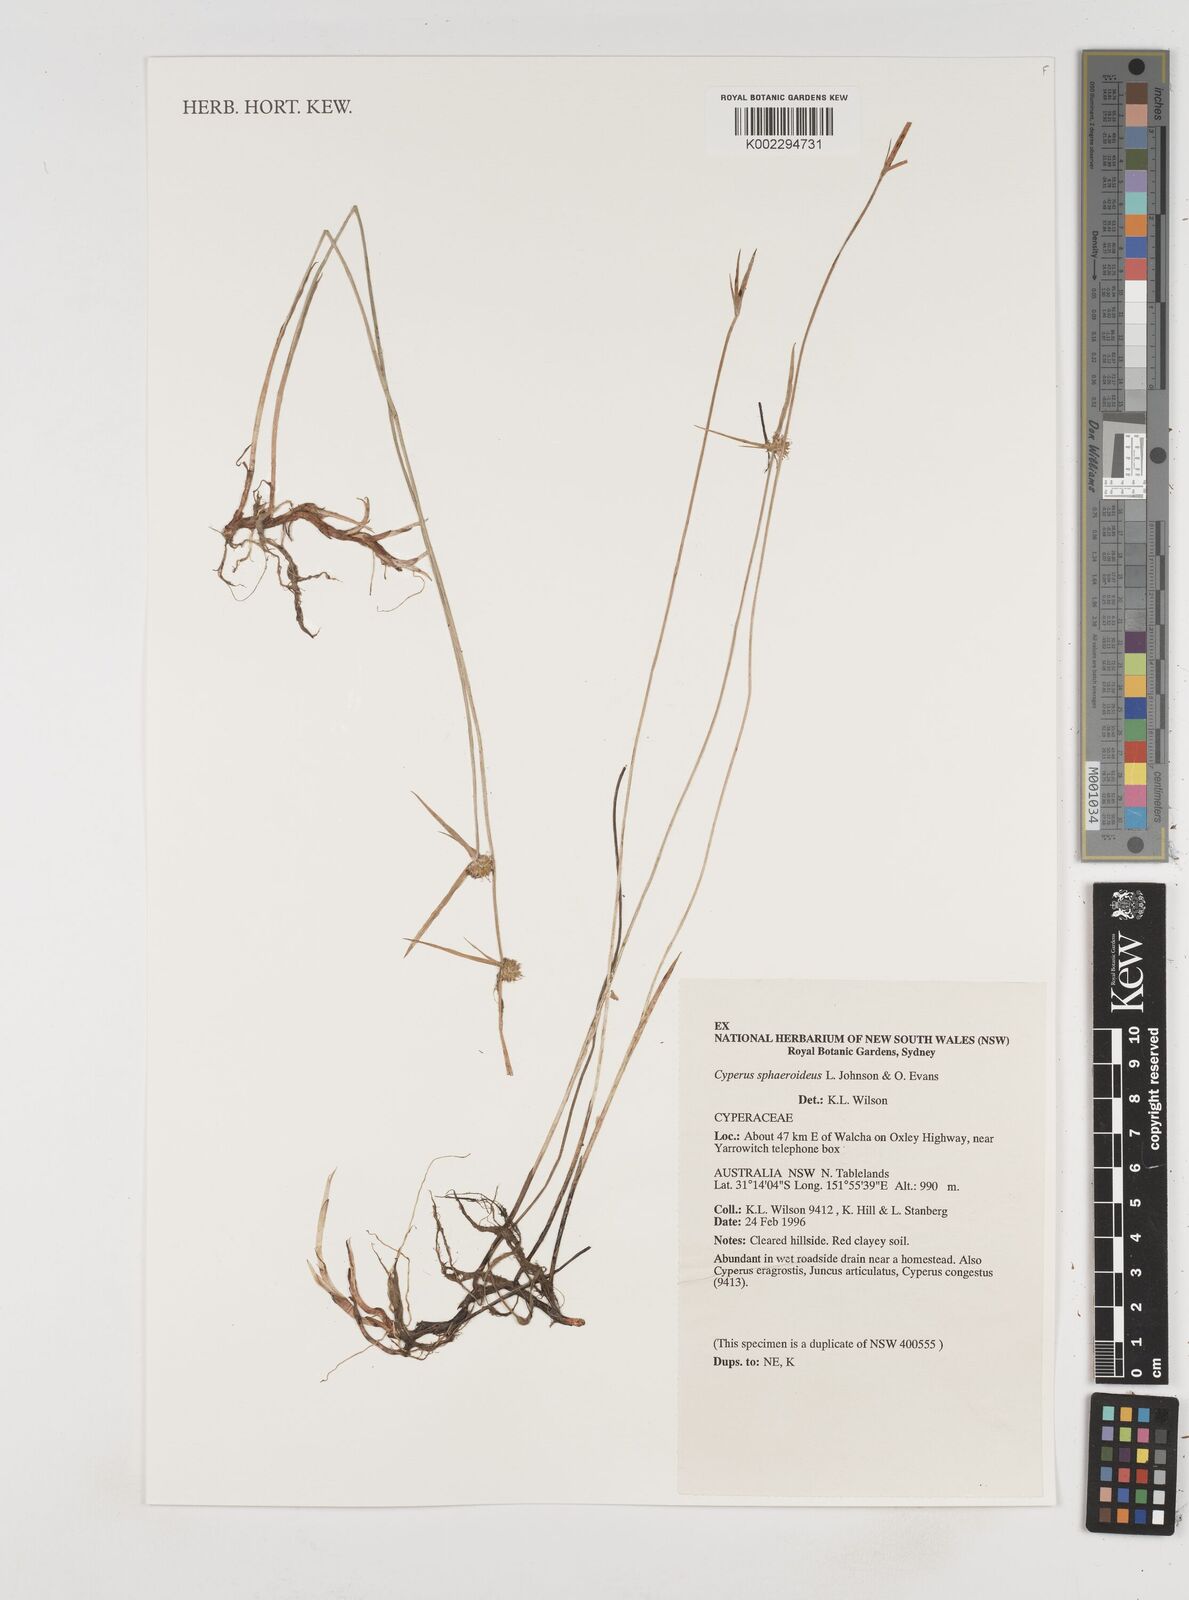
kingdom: Plantae
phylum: Tracheophyta
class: Liliopsida
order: Poales
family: Cyperaceae
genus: Cyperus
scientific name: Cyperus sphaeroideus
